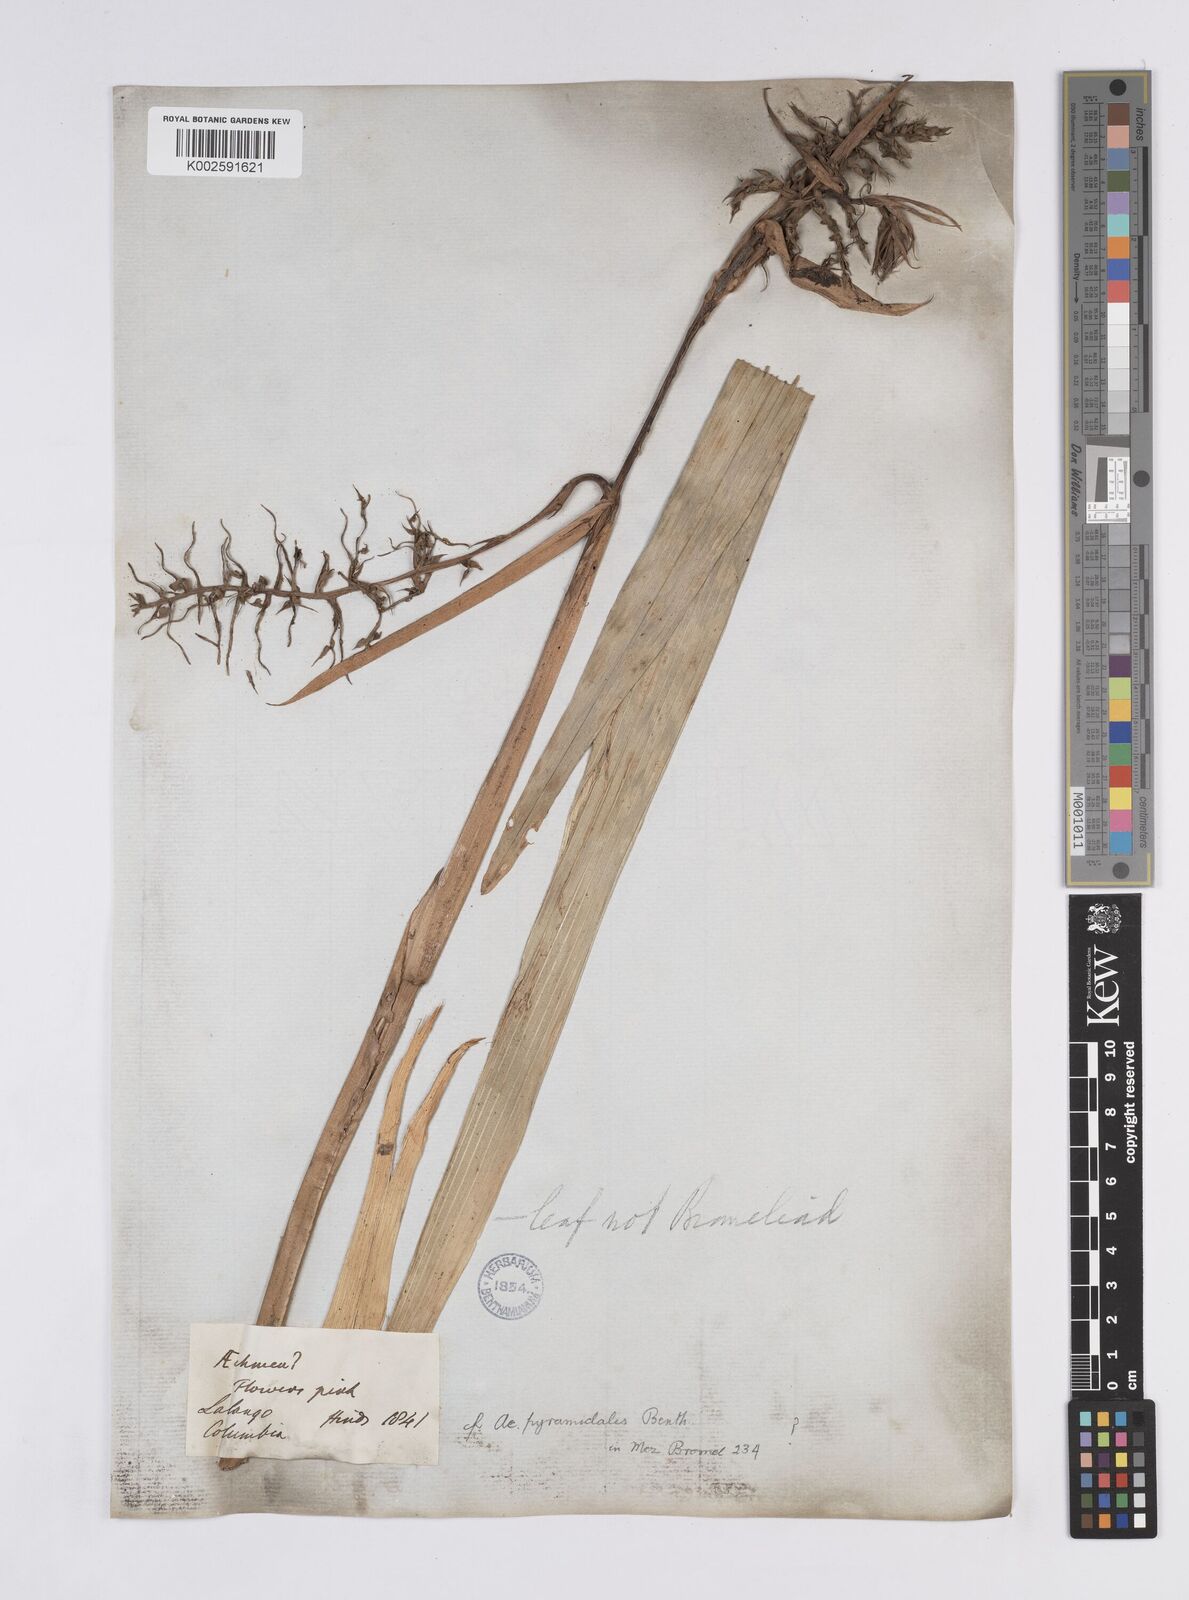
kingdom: Plantae
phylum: Tracheophyta
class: Liliopsida
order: Poales
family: Bromeliaceae
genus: Aechmea
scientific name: Aechmea pyramidalis
